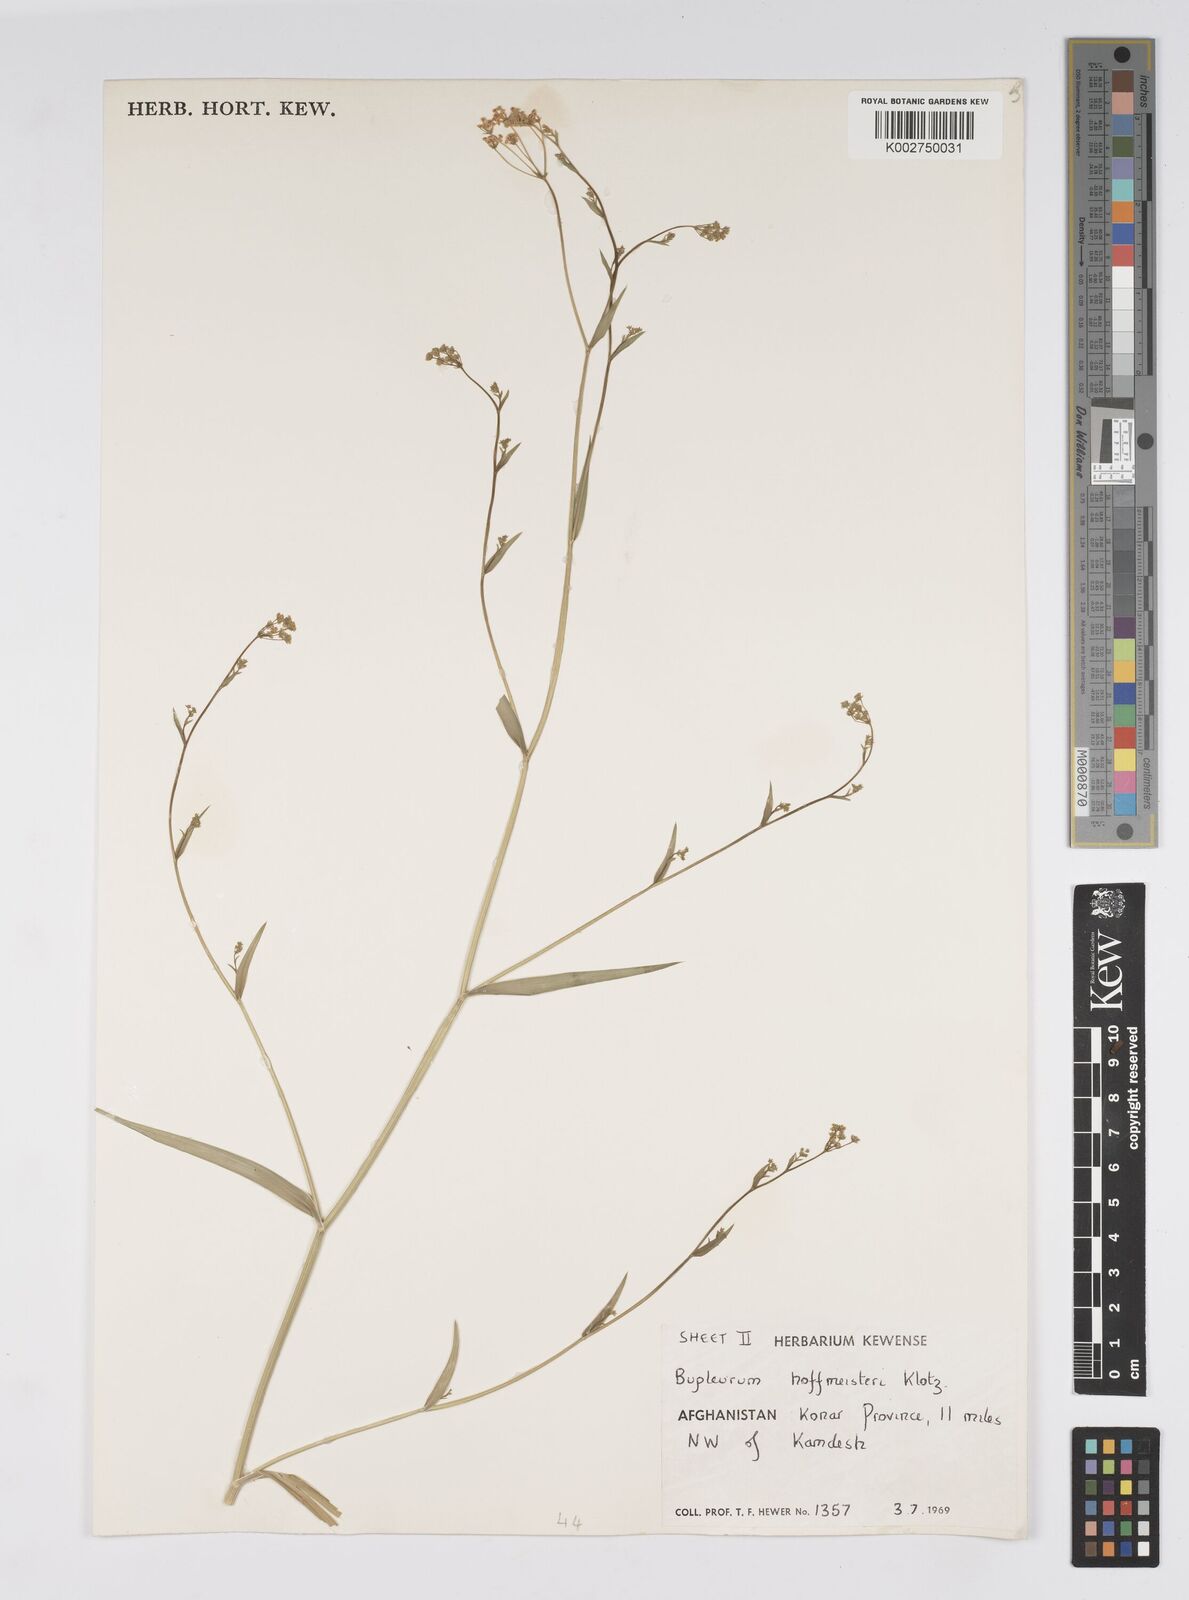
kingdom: Plantae
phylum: Tracheophyta
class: Magnoliopsida
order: Apiales
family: Apiaceae
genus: Bupleurum
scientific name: Bupleurum marginatum
